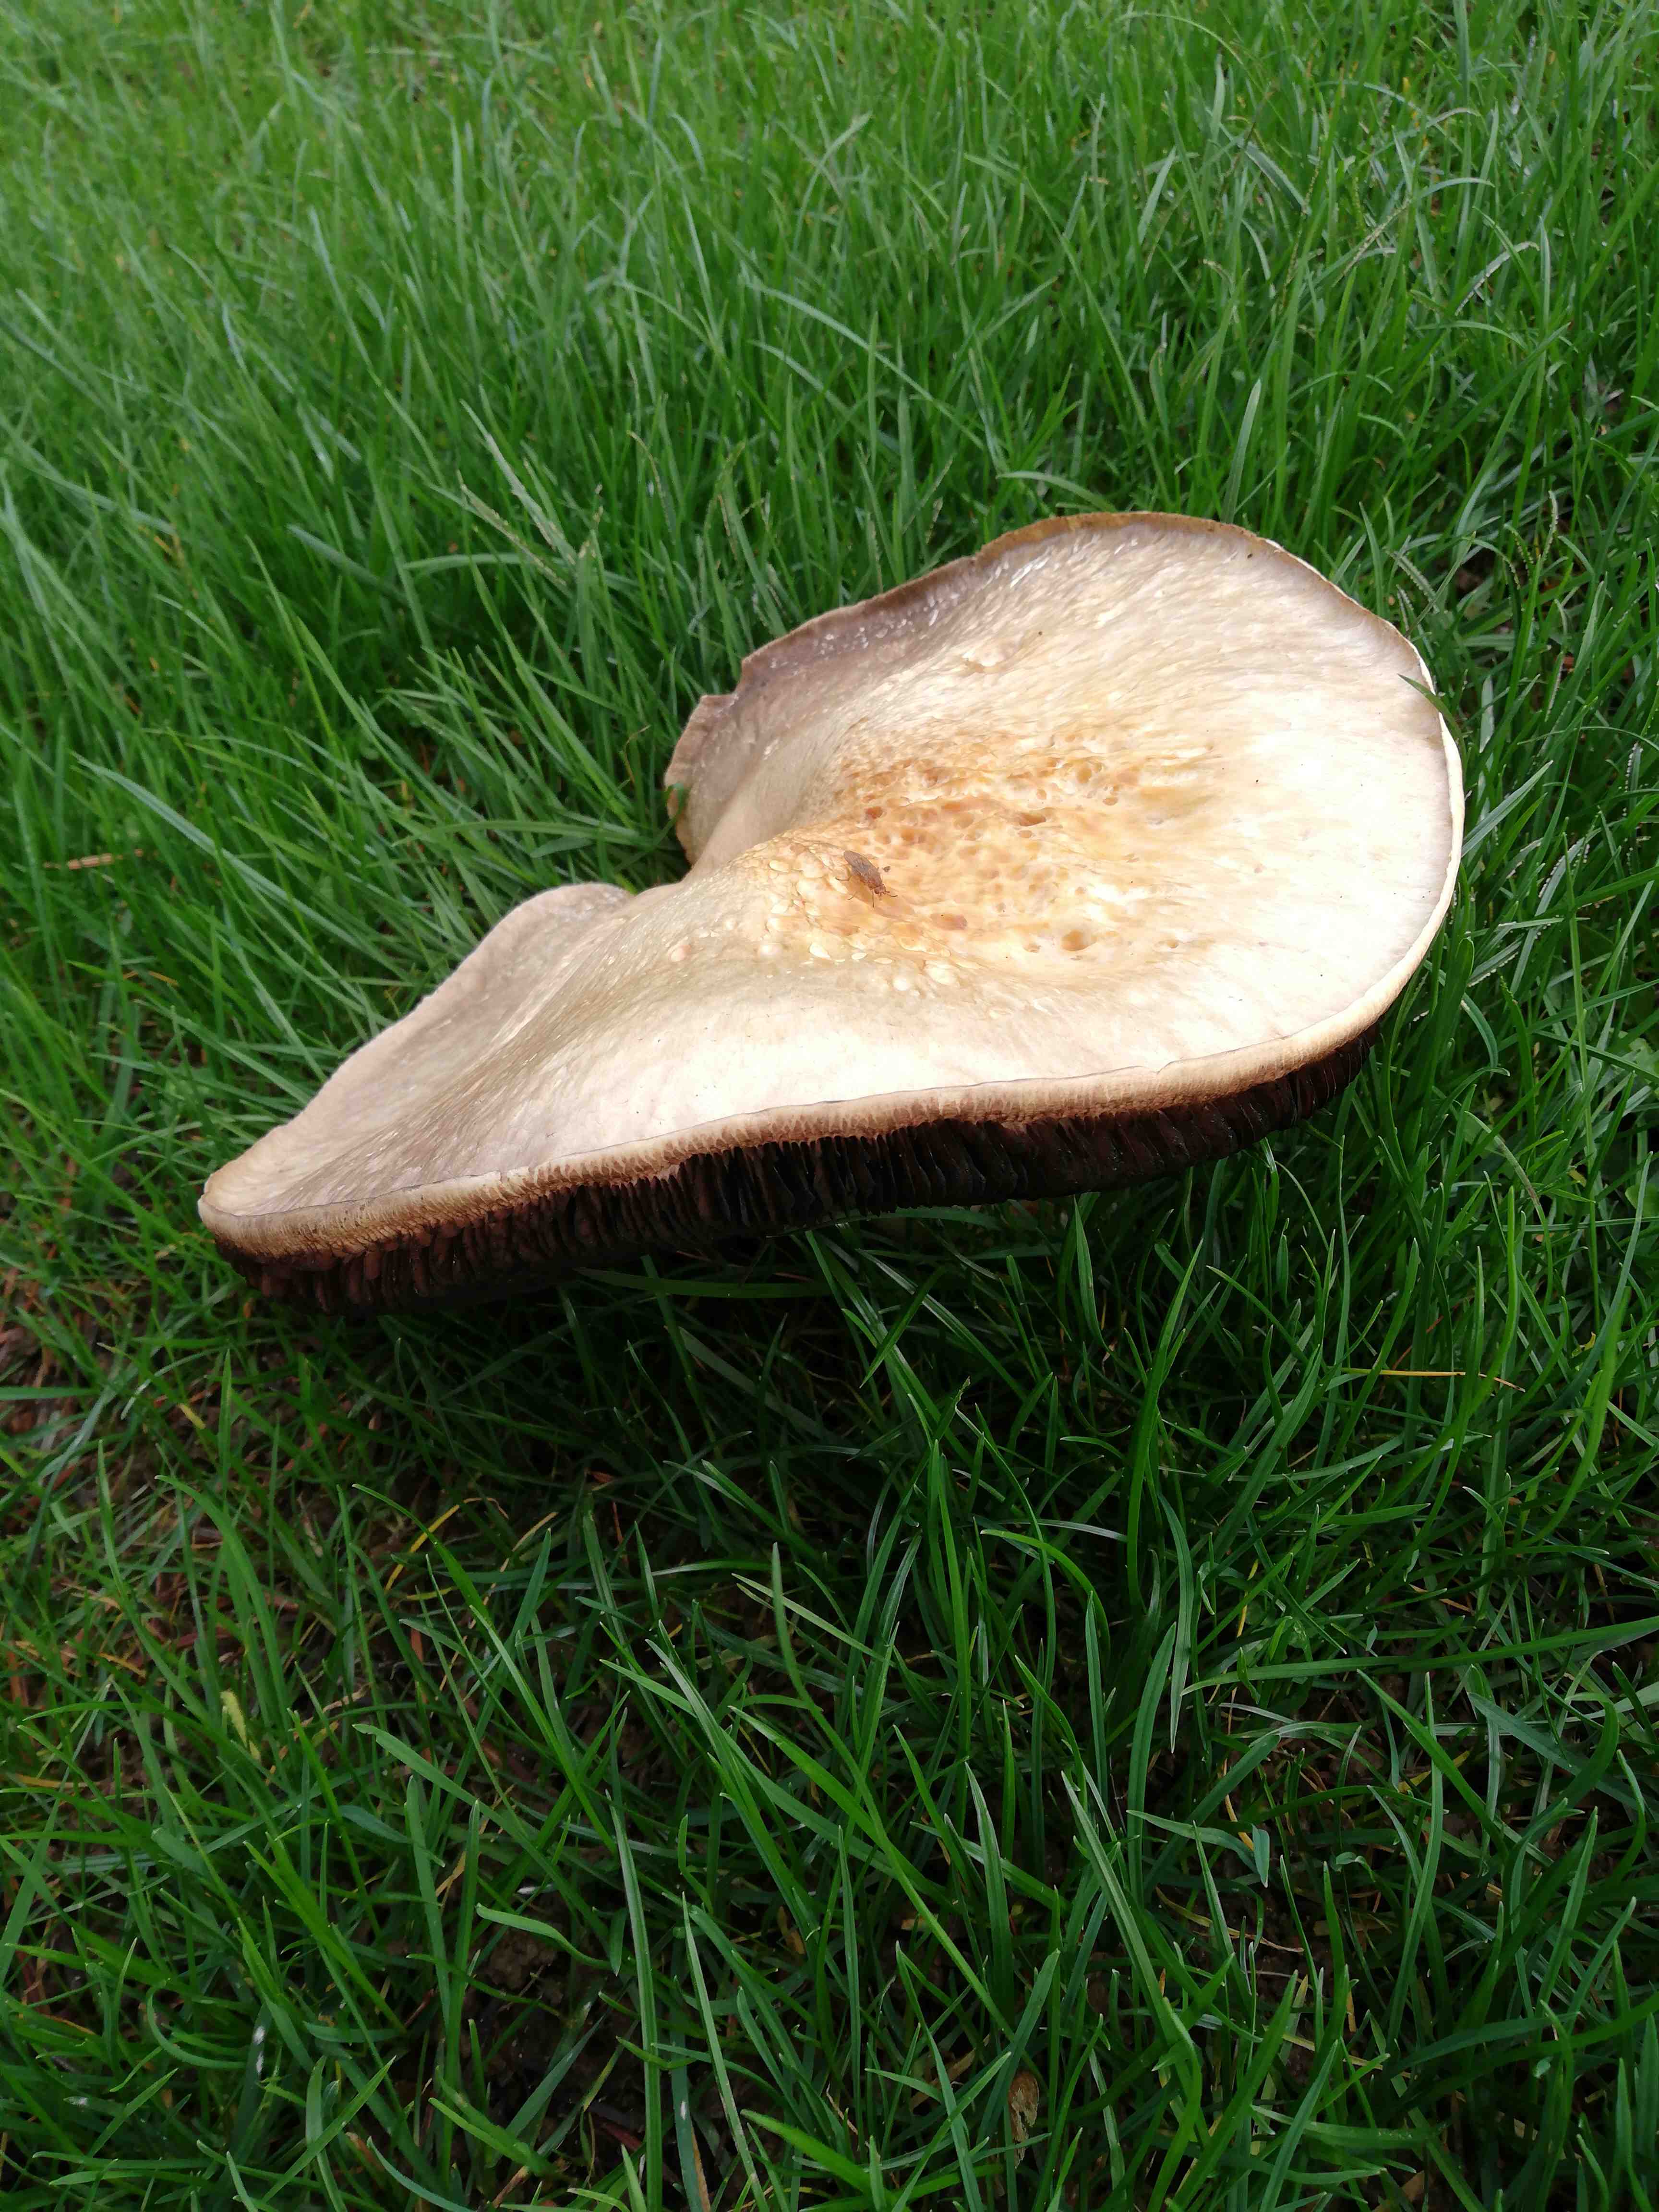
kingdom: Fungi
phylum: Basidiomycota
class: Agaricomycetes
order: Agaricales
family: Agaricaceae
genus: Agaricus
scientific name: Agaricus
